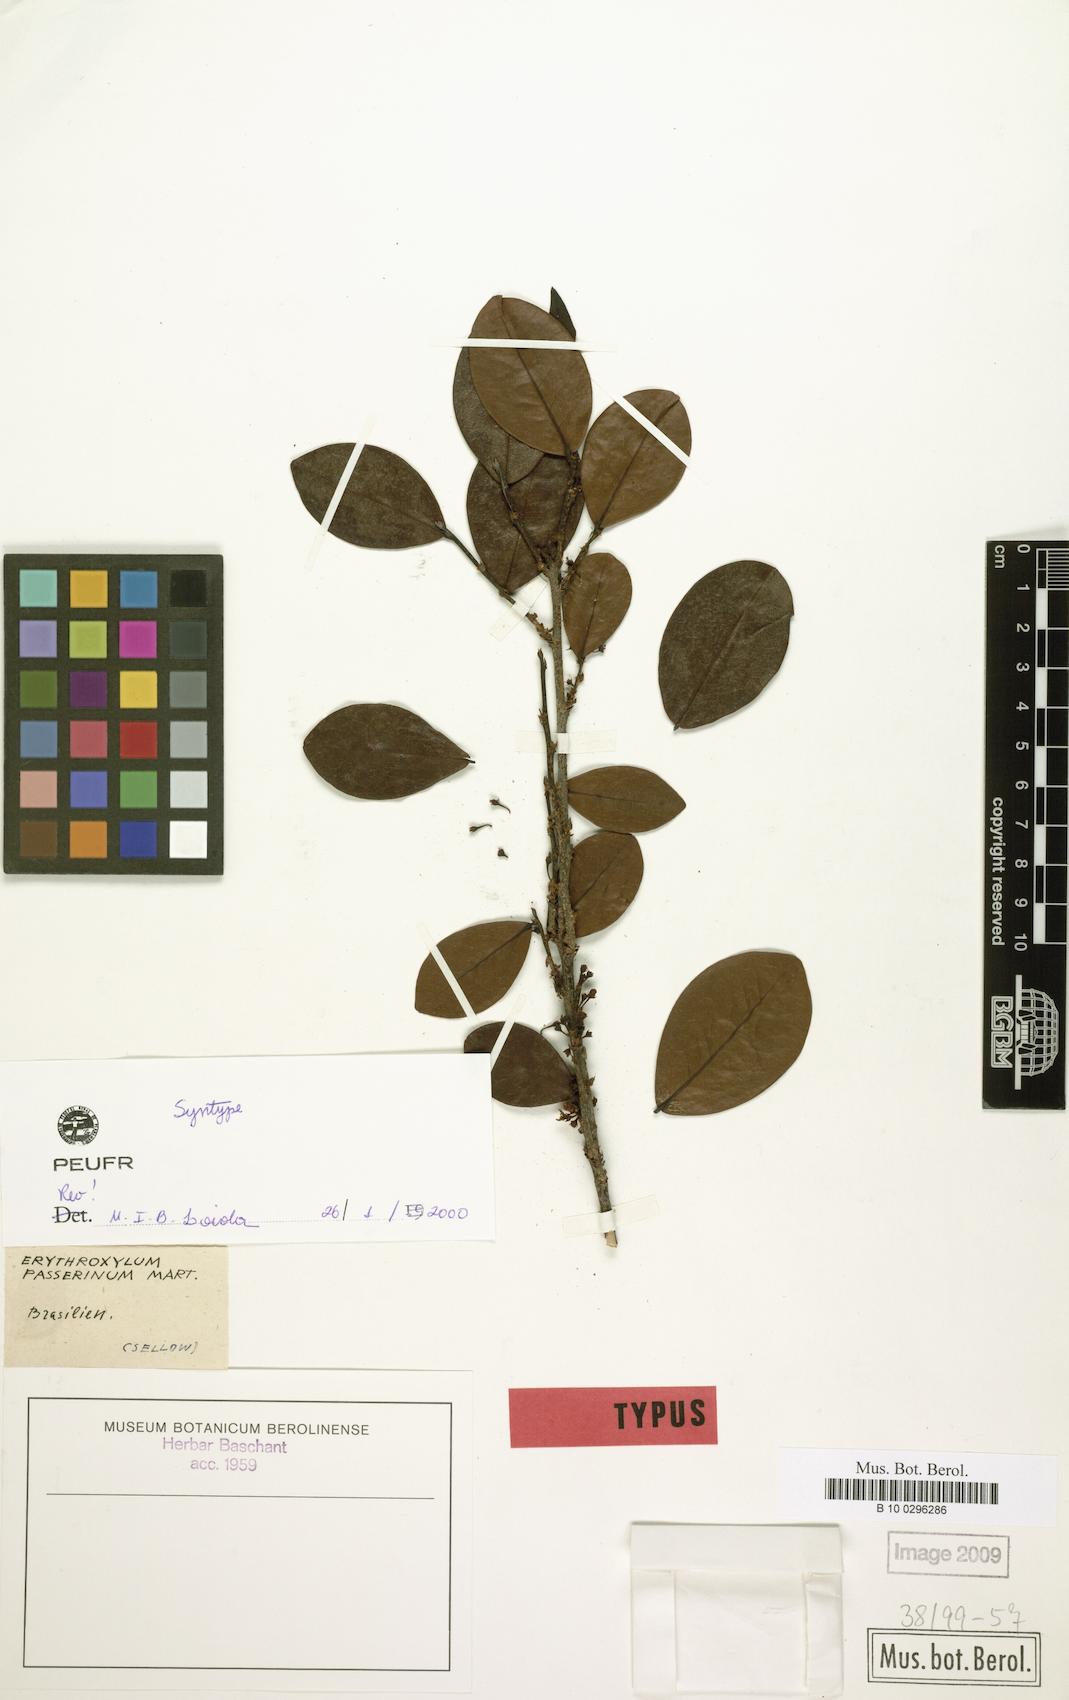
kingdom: Plantae
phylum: Tracheophyta
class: Magnoliopsida
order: Malpighiales
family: Erythroxylaceae
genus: Erythroxylum
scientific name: Erythroxylum passerinum
